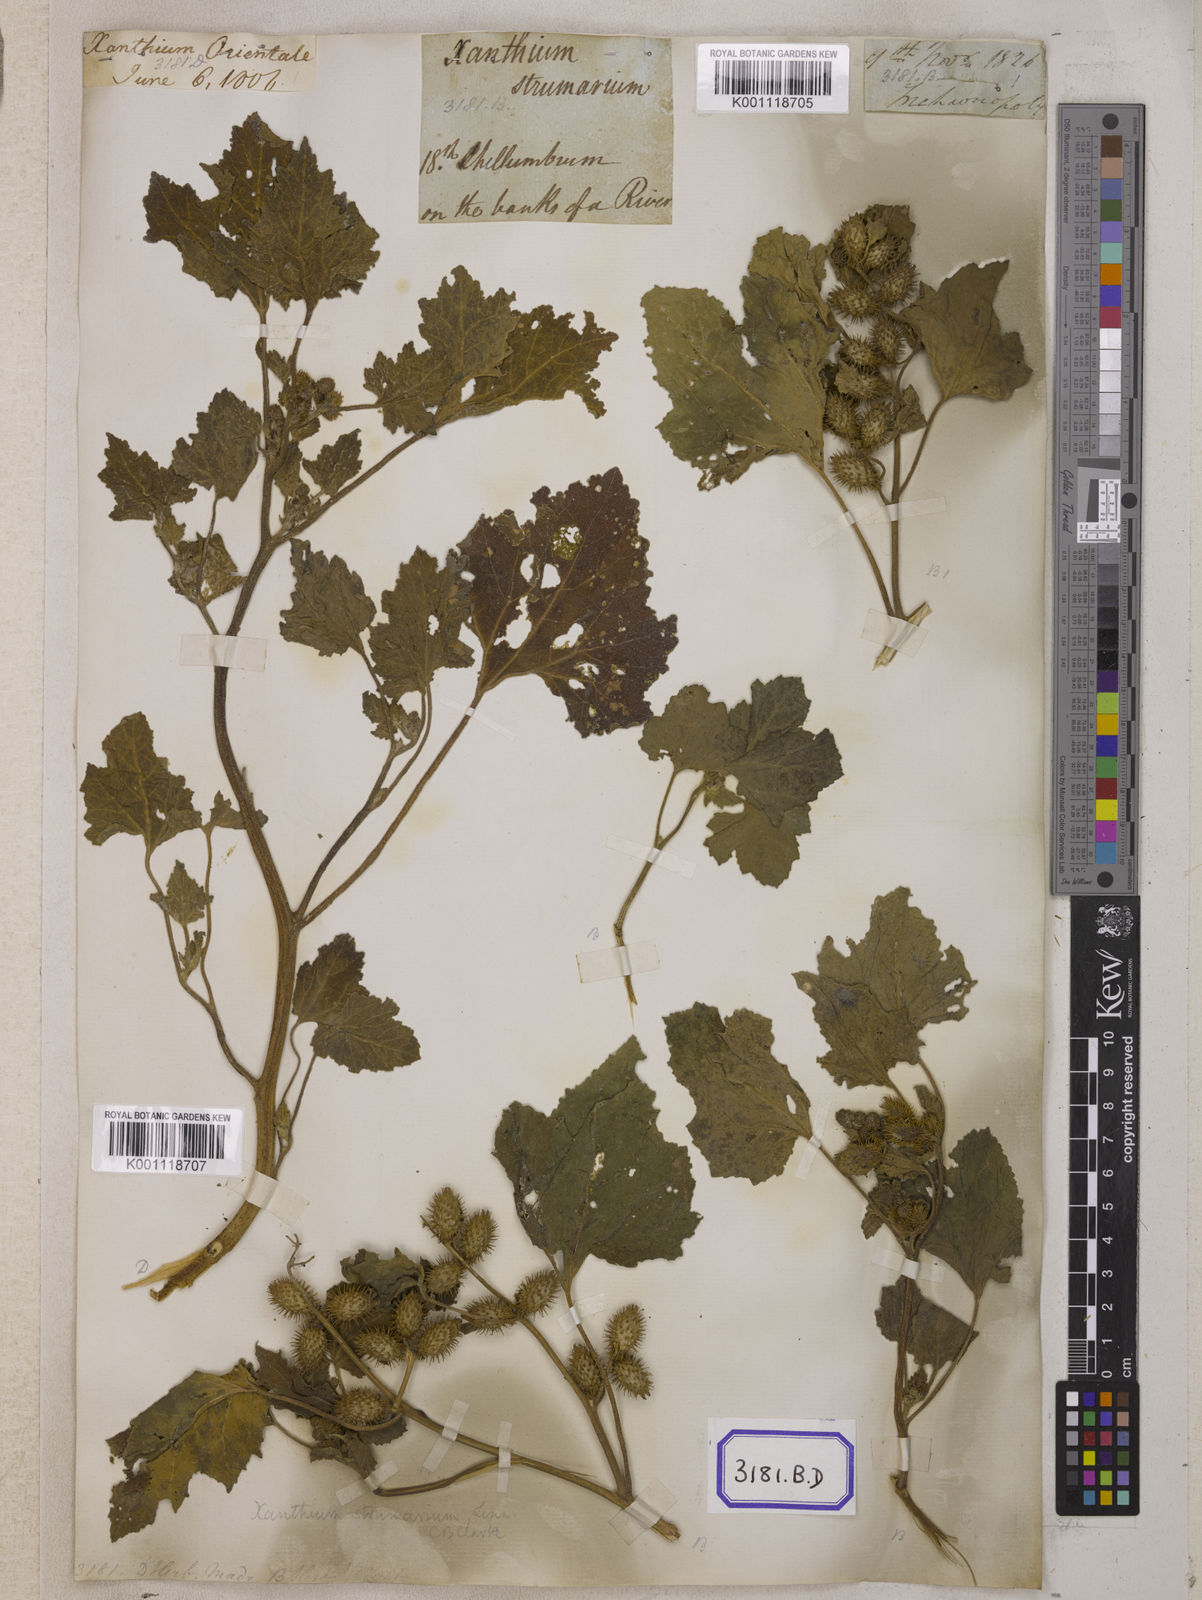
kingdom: Plantae
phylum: Tracheophyta
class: Magnoliopsida
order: Asterales
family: Asteraceae
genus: Xanthium
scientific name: Xanthium strumarium
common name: Rough cocklebur
